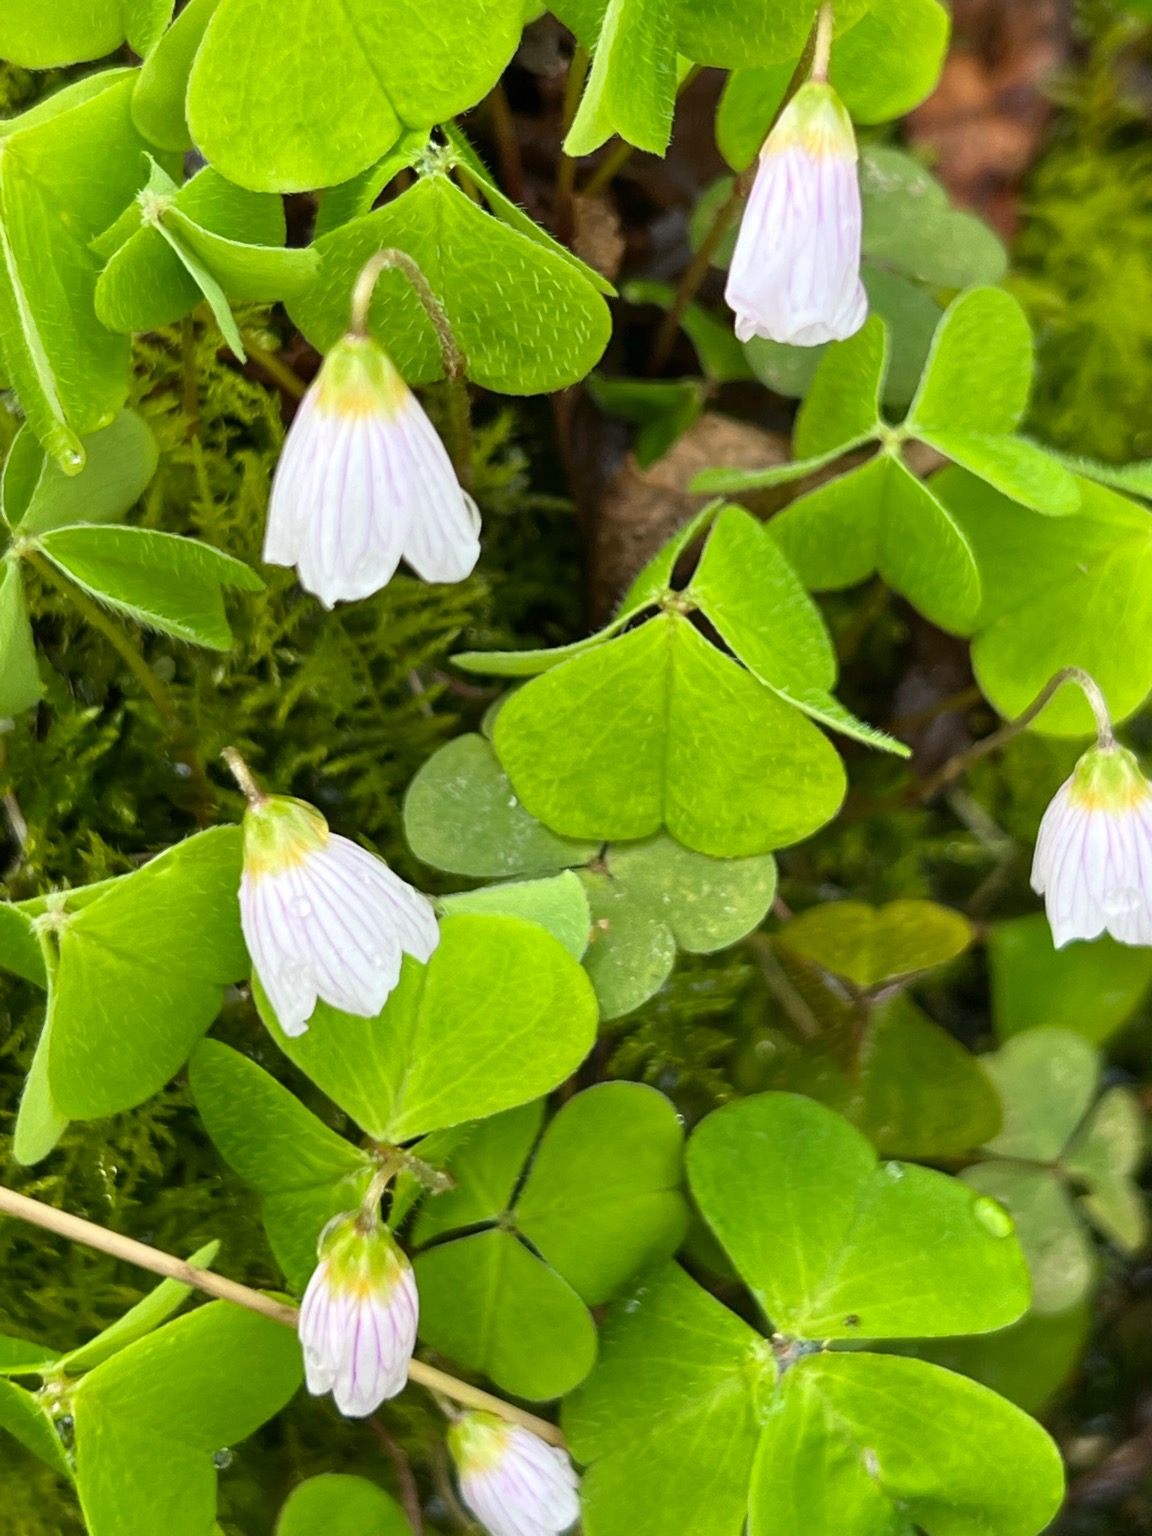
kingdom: Plantae
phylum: Tracheophyta
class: Magnoliopsida
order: Oxalidales
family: Oxalidaceae
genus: Oxalis
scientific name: Oxalis acetosella
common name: Skovsyre
